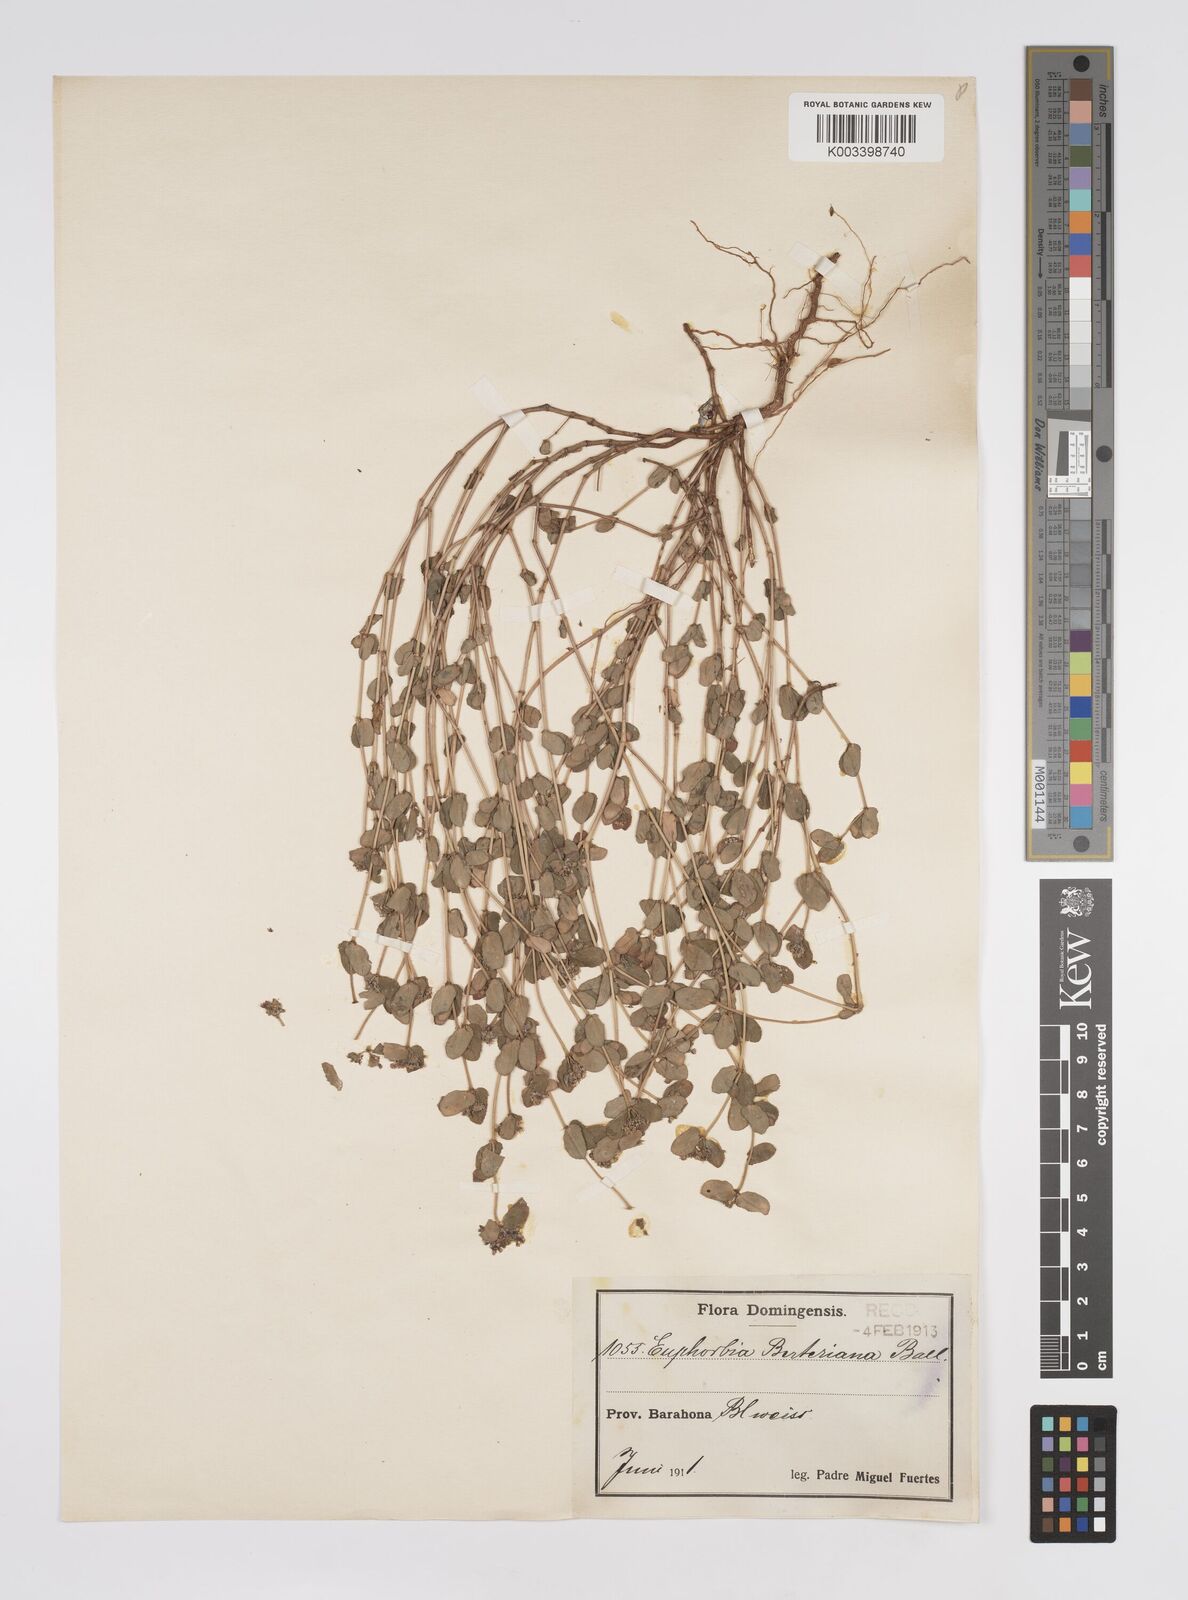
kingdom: Plantae
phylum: Tracheophyta
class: Magnoliopsida
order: Malpighiales
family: Euphorbiaceae
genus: Euphorbia
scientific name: Euphorbia berteroana
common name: Bertero's sandmat
